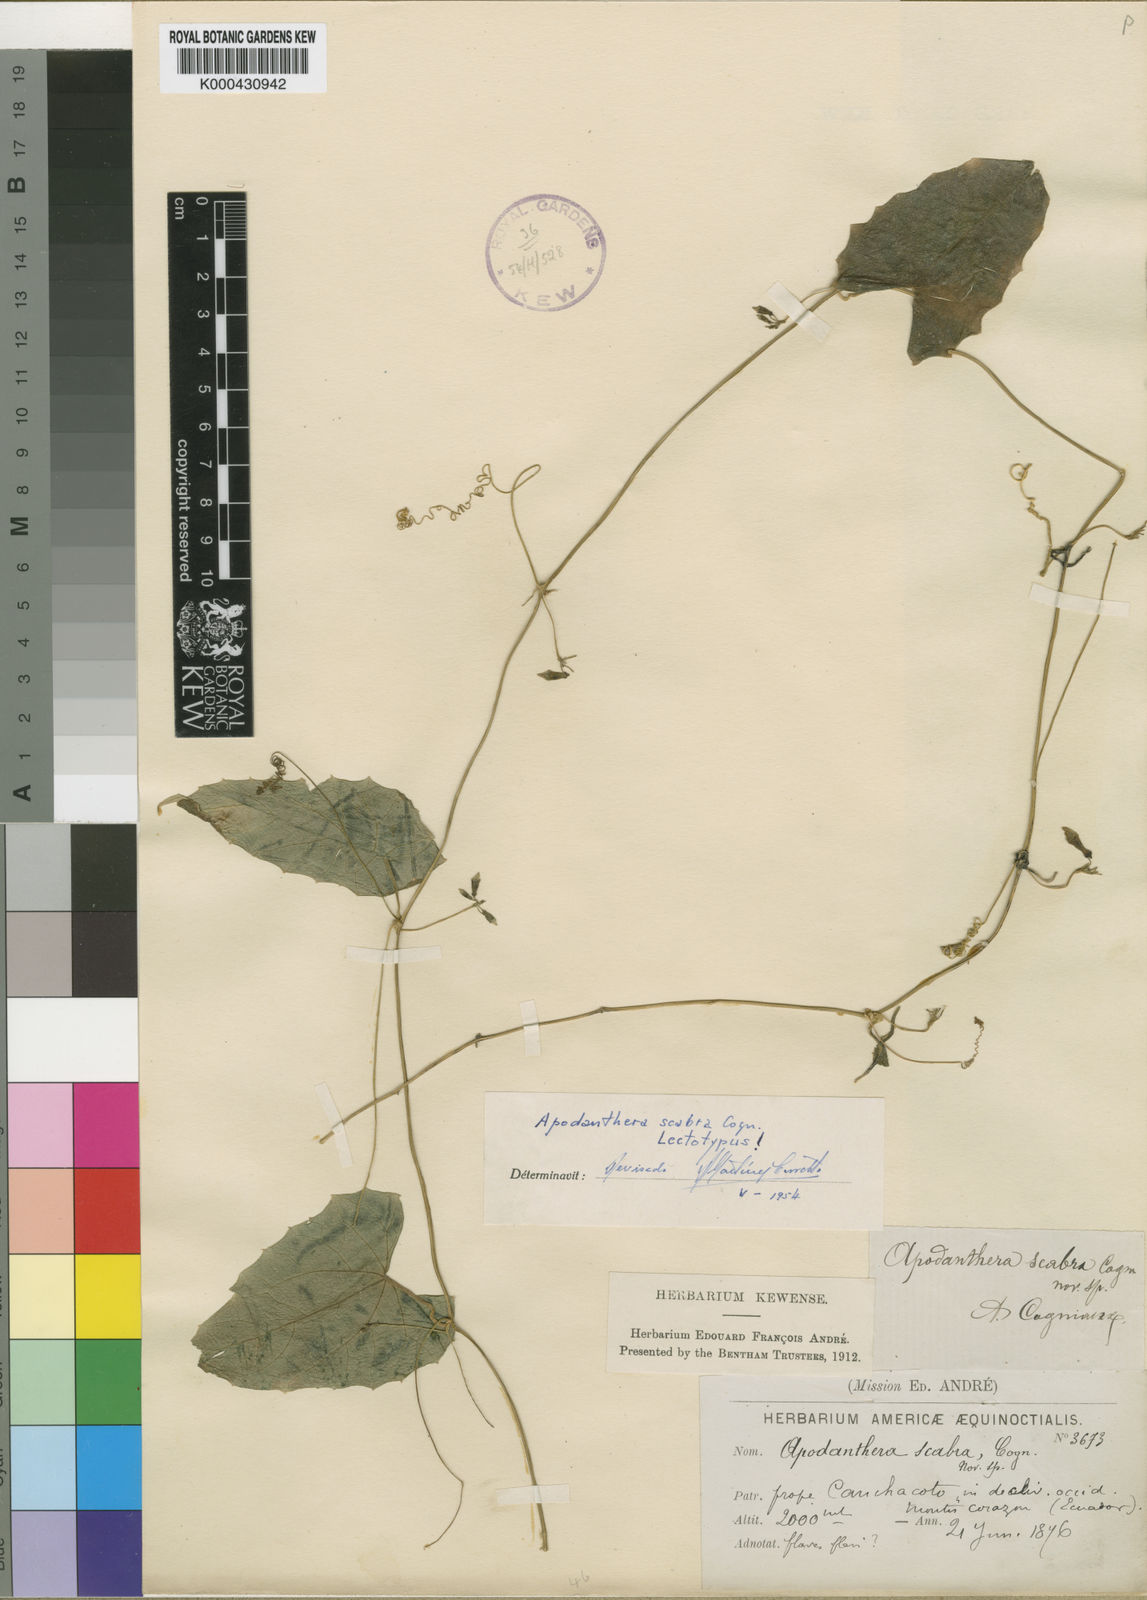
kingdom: Plantae
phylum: Tracheophyta
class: Magnoliopsida
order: Cucurbitales
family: Cucurbitaceae
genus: Melothria
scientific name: Melothria longituba
